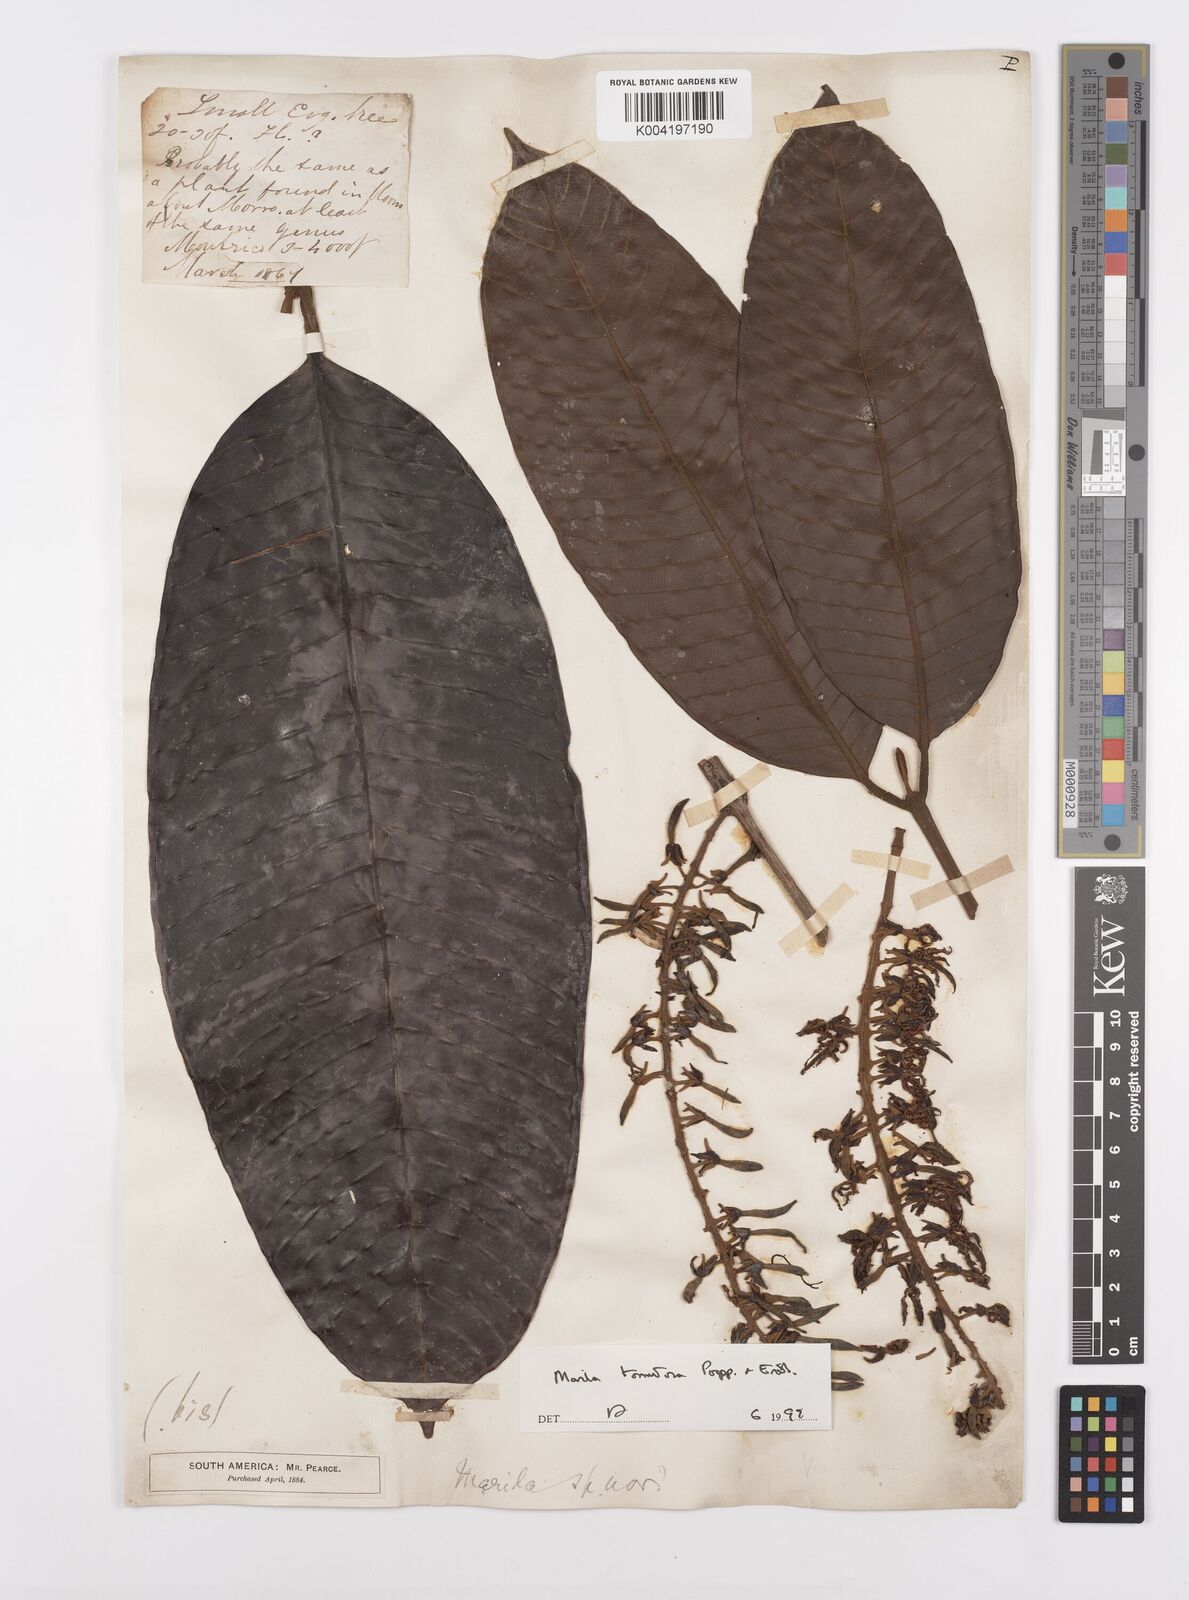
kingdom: Plantae
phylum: Tracheophyta
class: Magnoliopsida
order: Malpighiales
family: Calophyllaceae
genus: Marila
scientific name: Marila tomentosa
